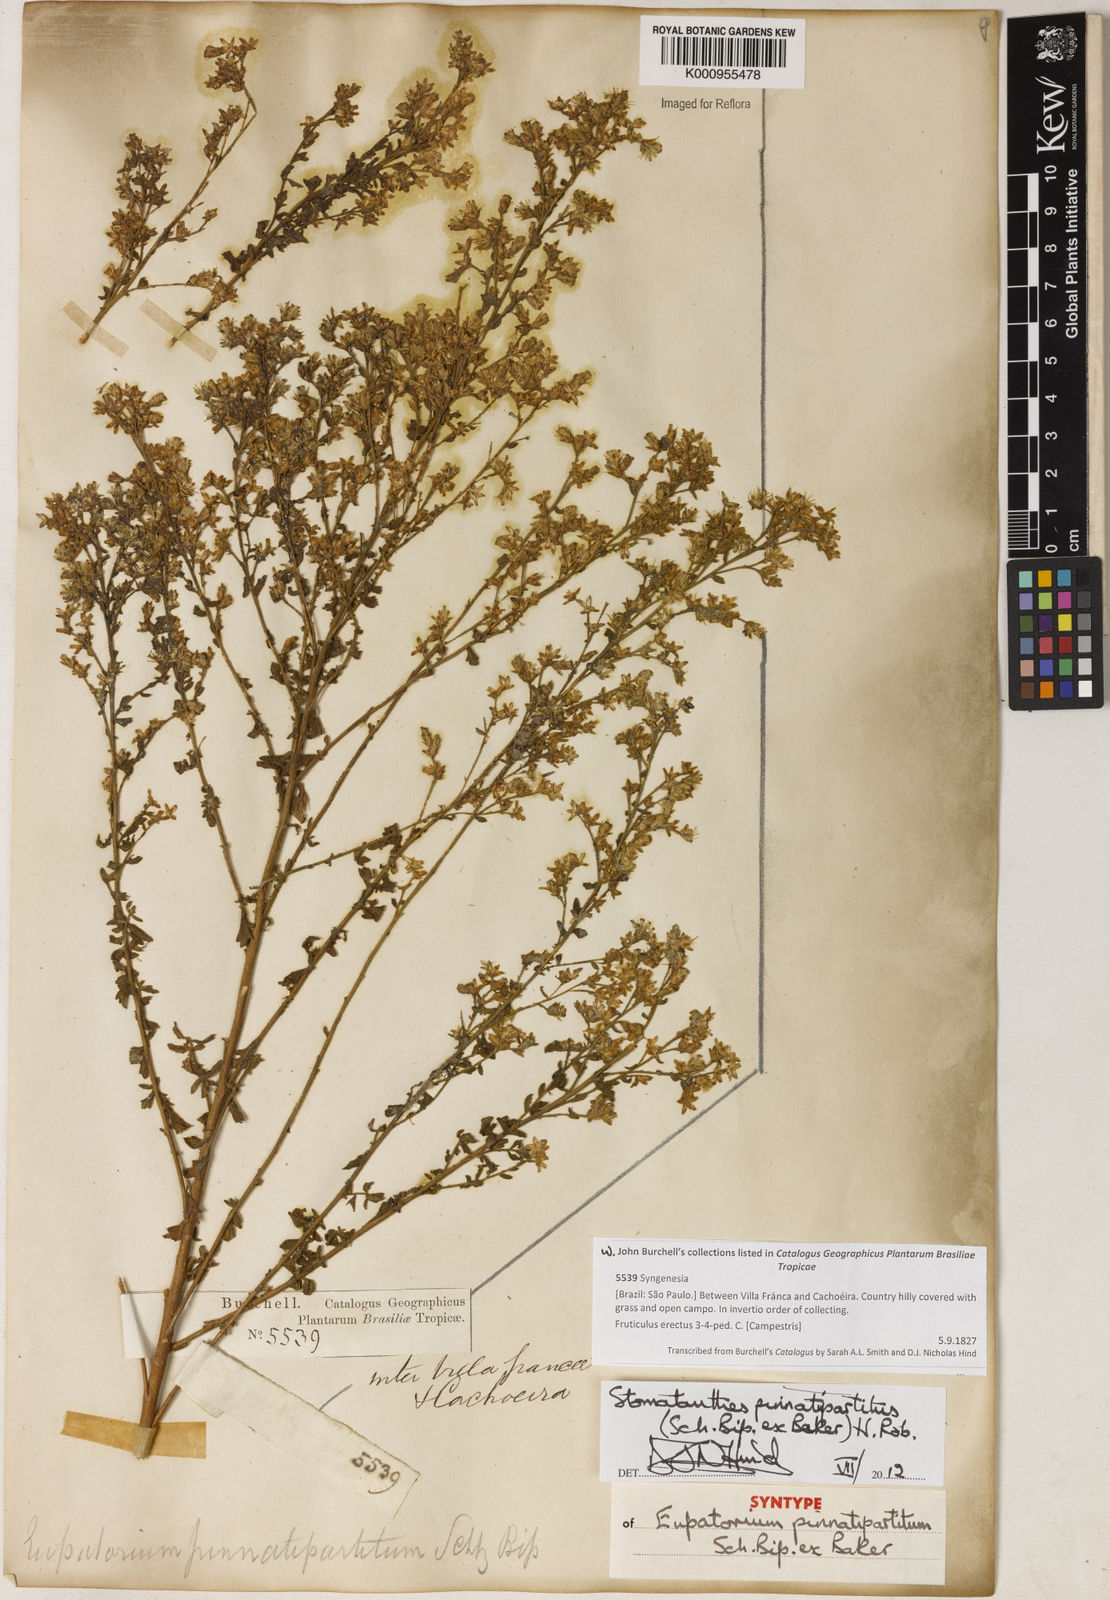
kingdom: Plantae
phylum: Tracheophyta
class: Magnoliopsida
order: Asterales
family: Asteraceae
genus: Stomatanthes
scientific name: Stomatanthes pinnatipartitus
